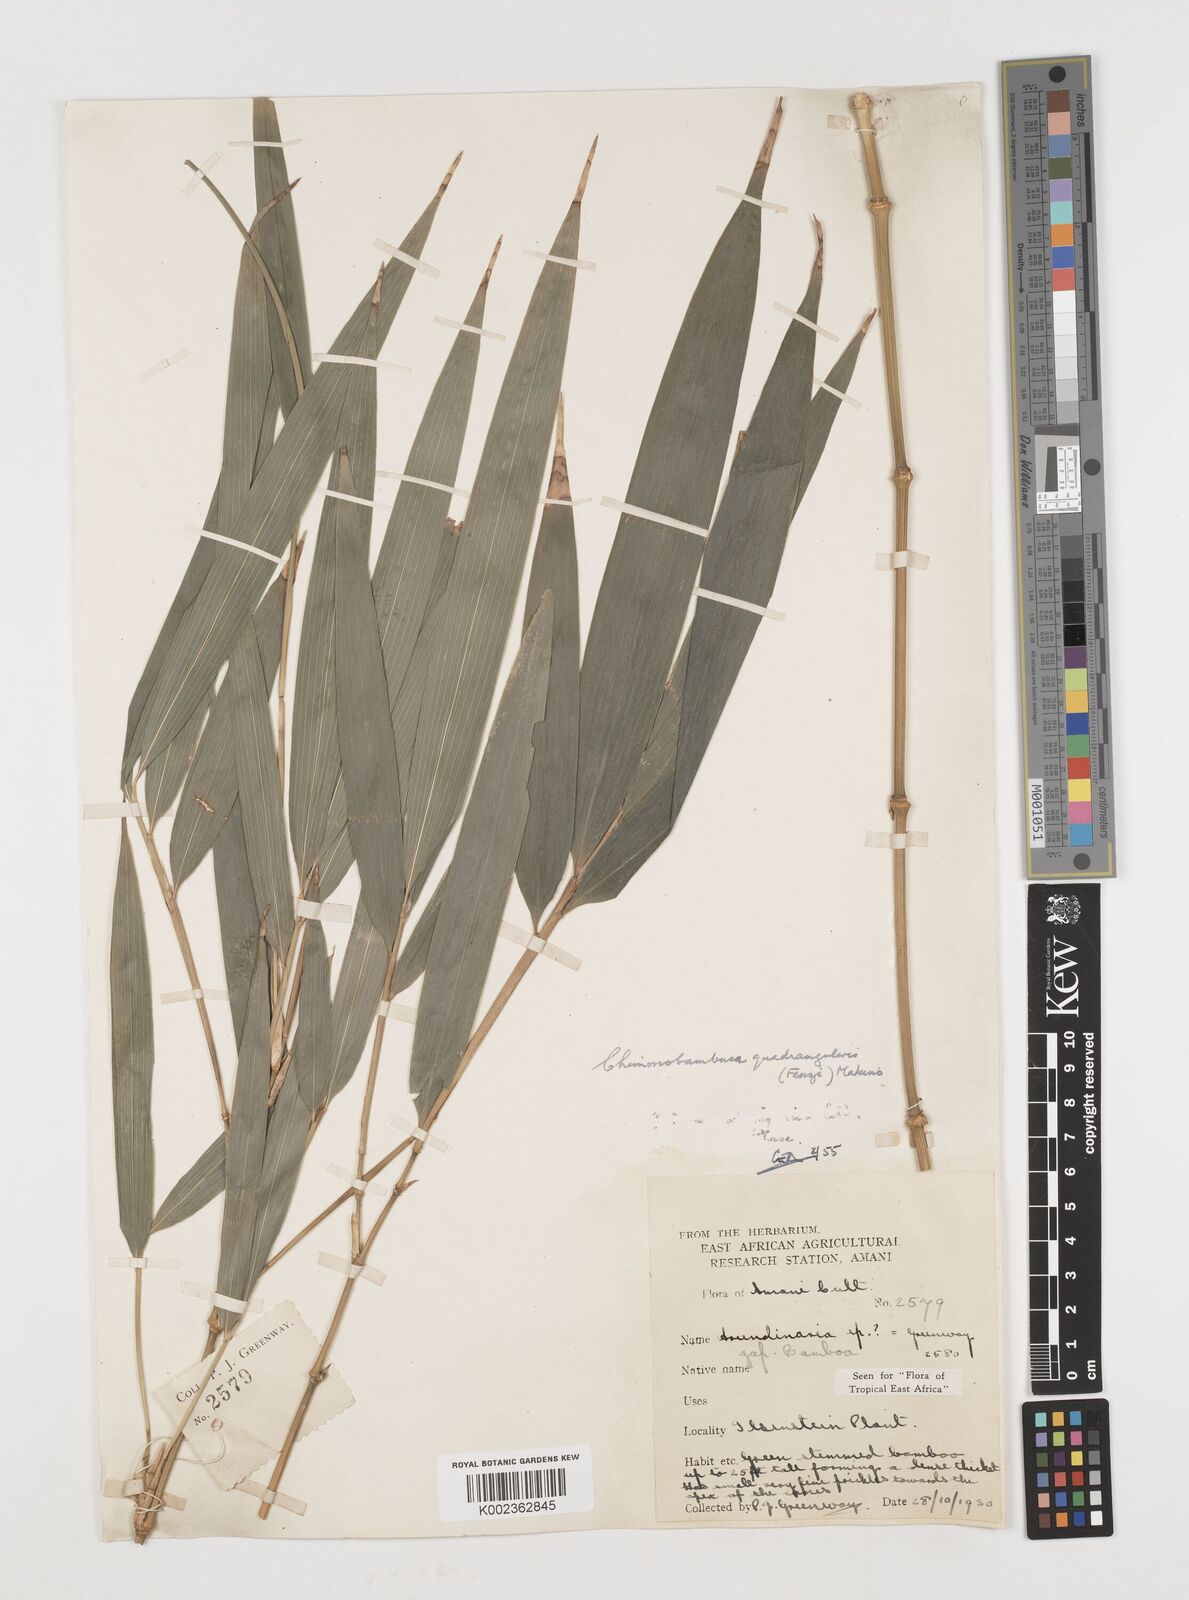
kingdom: Plantae
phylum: Tracheophyta
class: Liliopsida
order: Poales
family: Poaceae
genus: Chimonobambusa
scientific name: Chimonobambusa quadrangularis
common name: Square-stemmed bamboo
